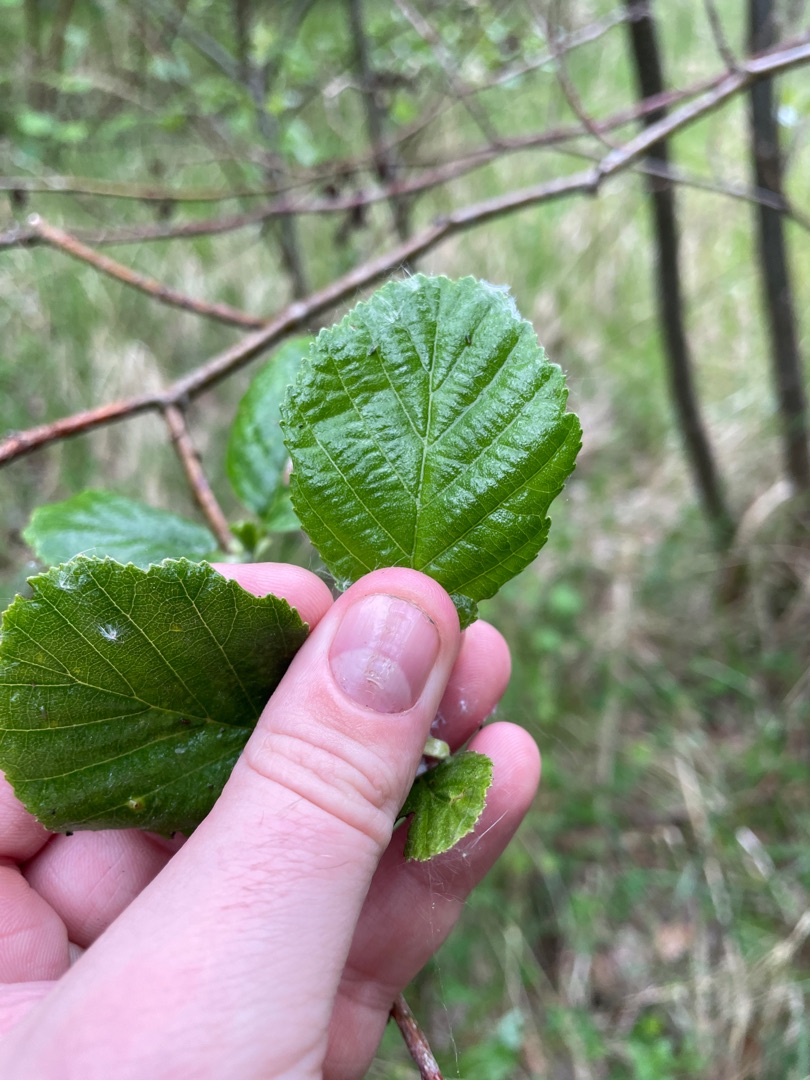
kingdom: Plantae
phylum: Tracheophyta
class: Magnoliopsida
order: Fagales
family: Betulaceae
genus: Alnus
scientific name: Alnus glutinosa
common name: Rød-el
